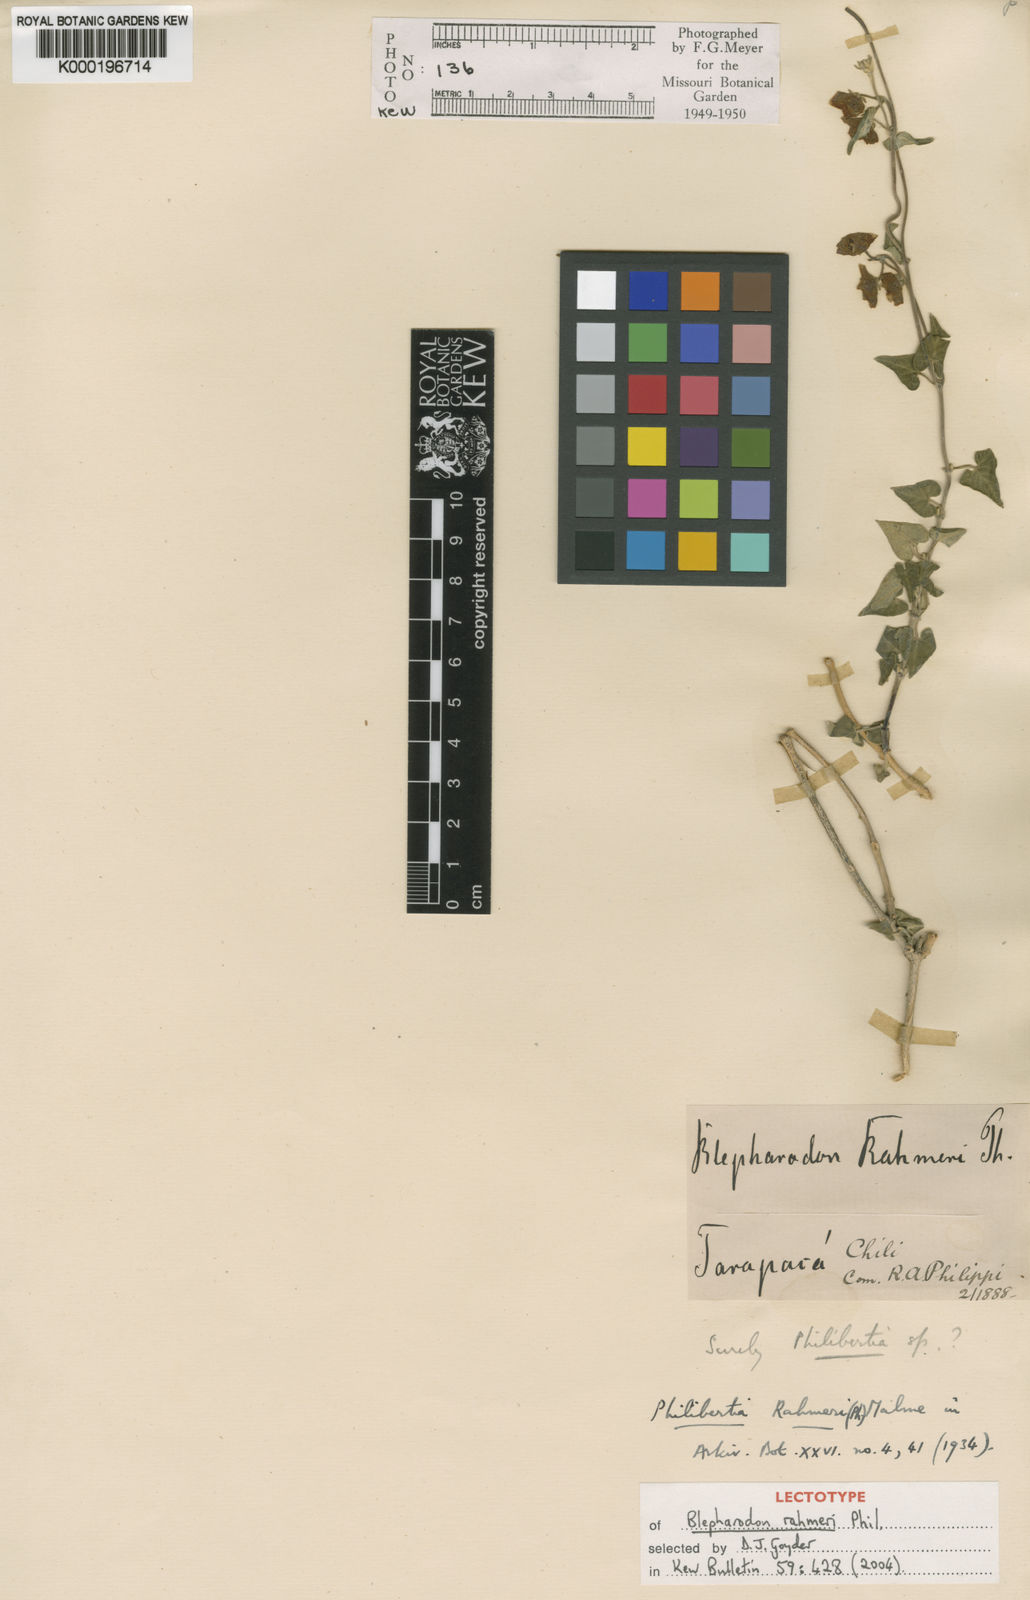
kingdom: Plantae
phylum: Tracheophyta
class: Magnoliopsida
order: Gentianales
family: Apocynaceae
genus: Philibertia
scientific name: Philibertia solanoides
